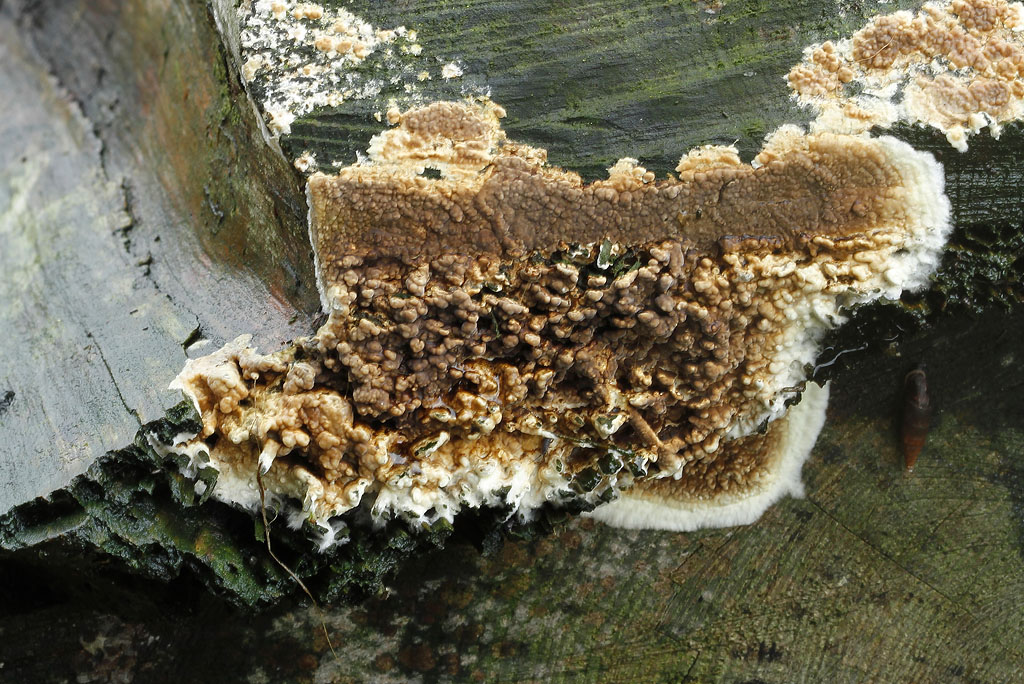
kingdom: Fungi
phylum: Basidiomycota
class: Agaricomycetes
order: Boletales
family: Coniophoraceae
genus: Coniophora
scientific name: Coniophora puteana
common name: gul tømmersvamp
